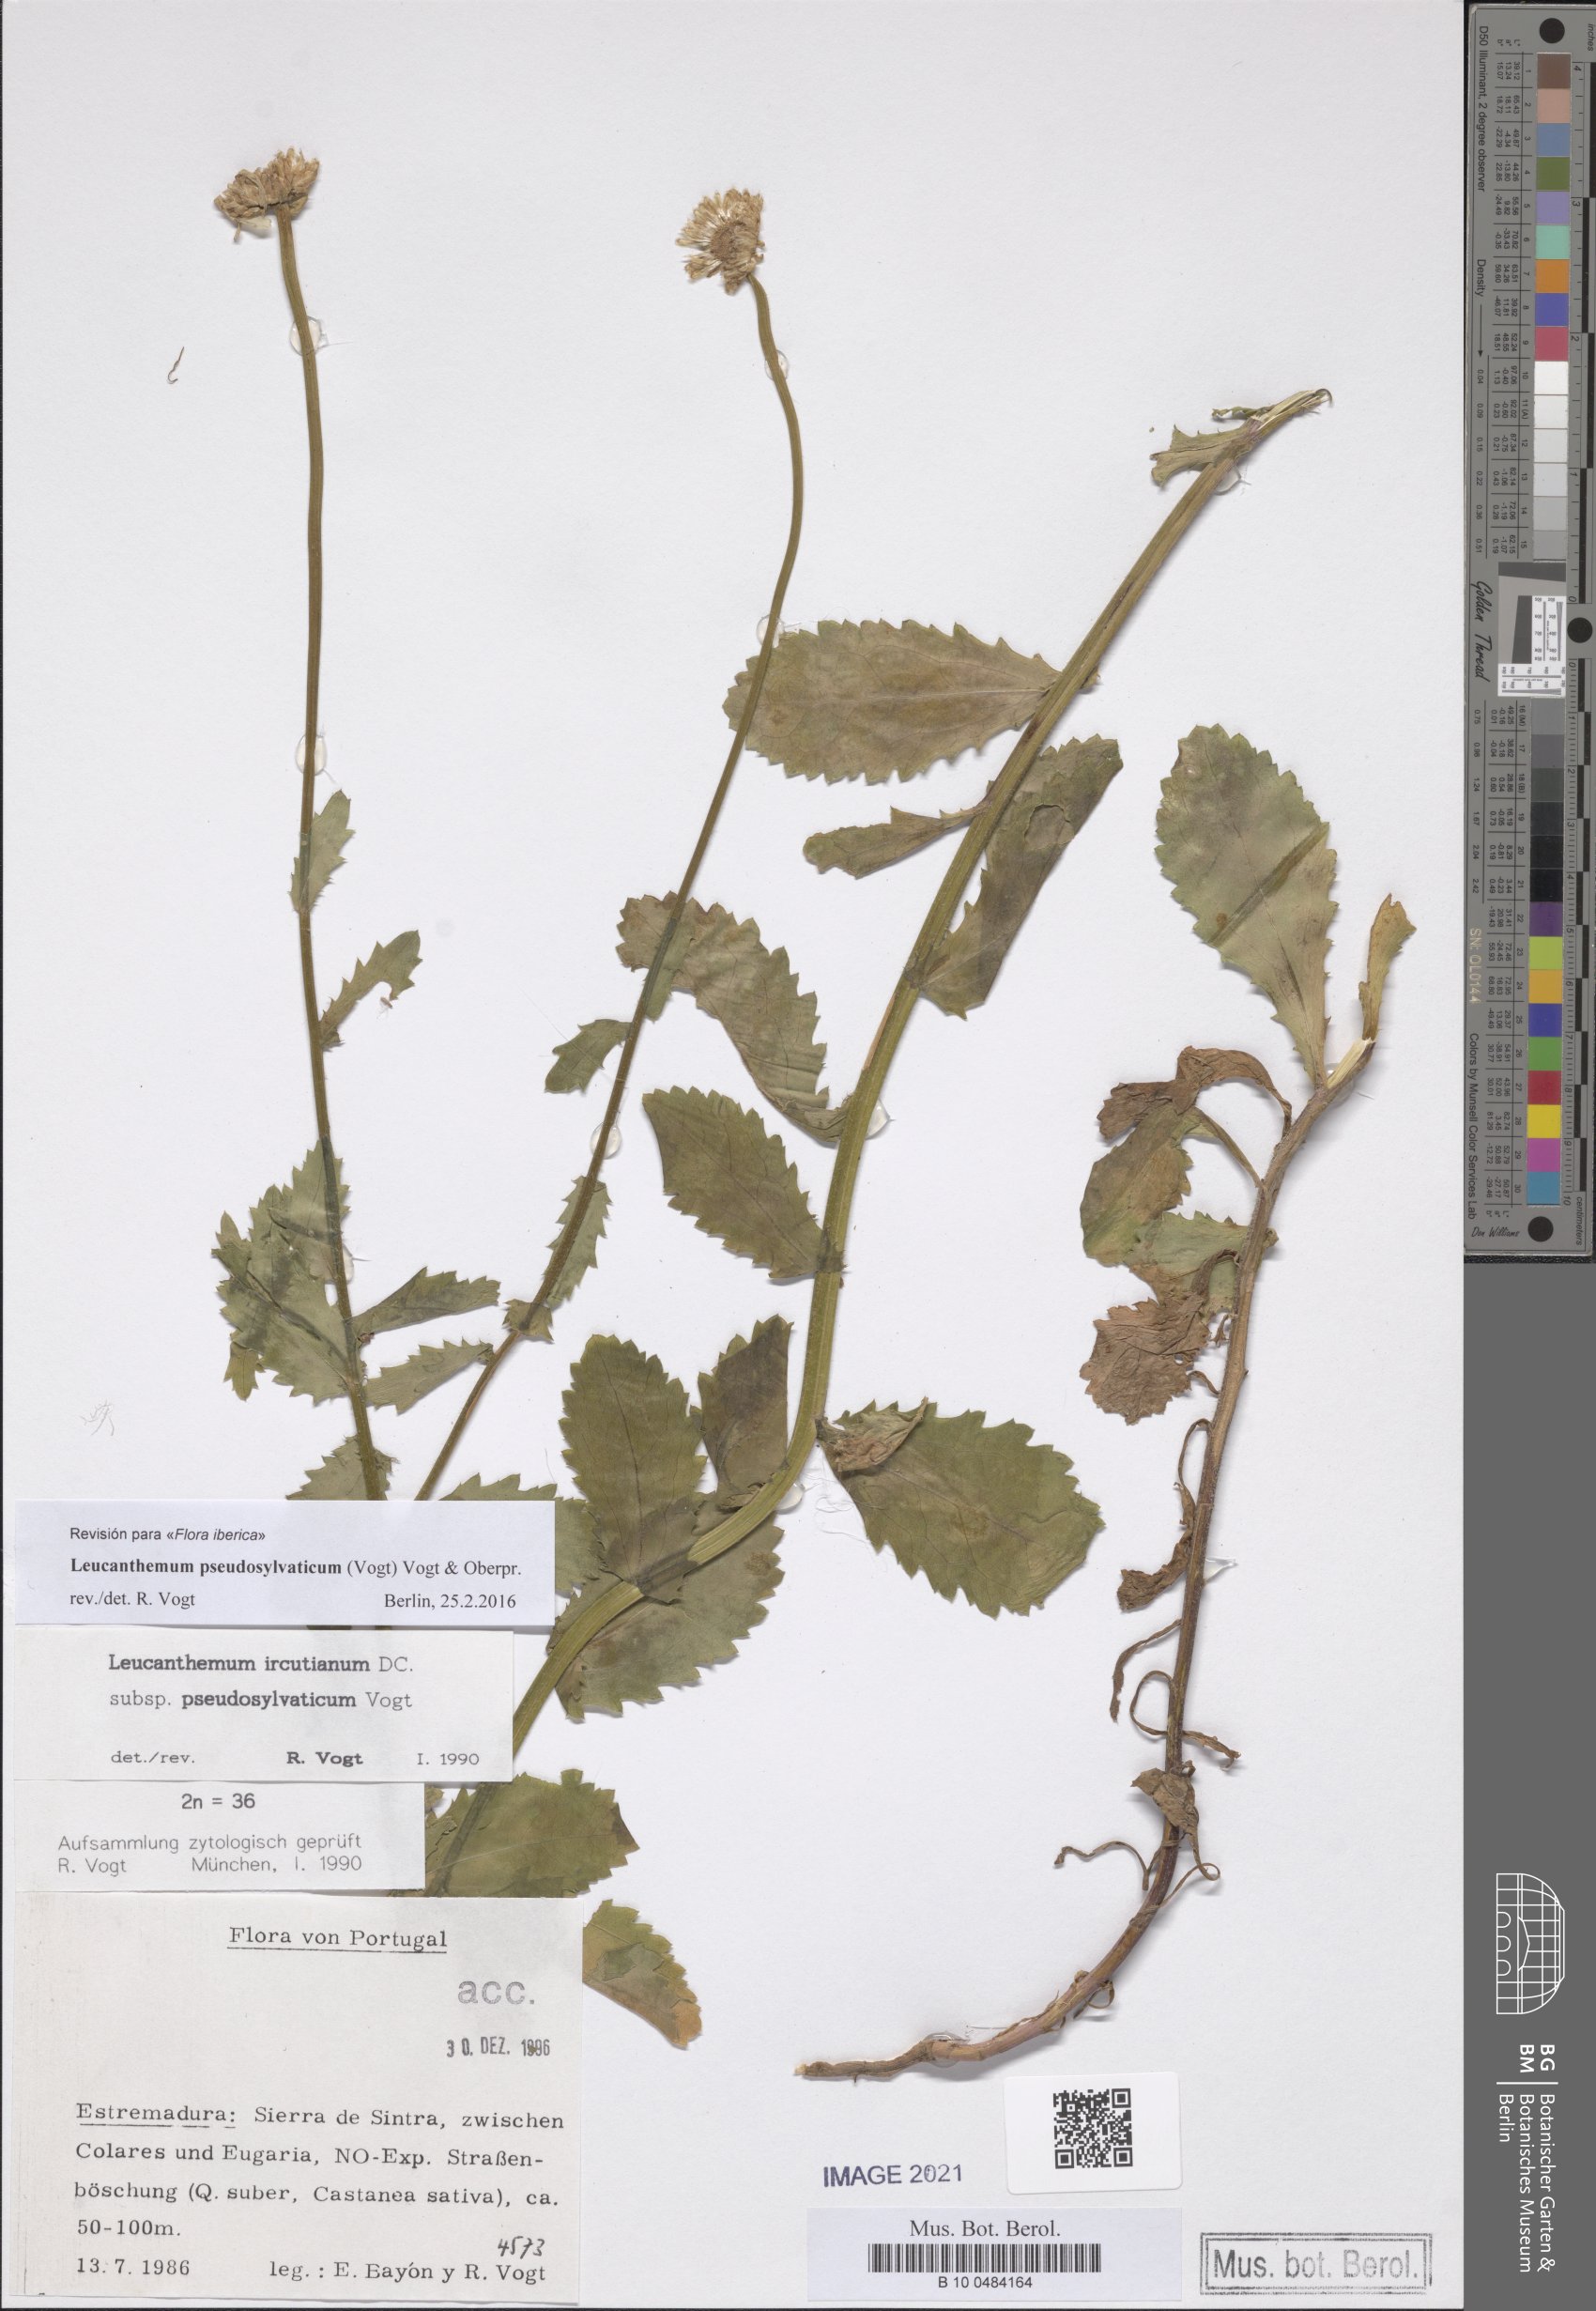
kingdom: Plantae
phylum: Tracheophyta
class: Magnoliopsida
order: Asterales
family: Asteraceae
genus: Leucanthemum
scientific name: Leucanthemum pseudosylvaticum
